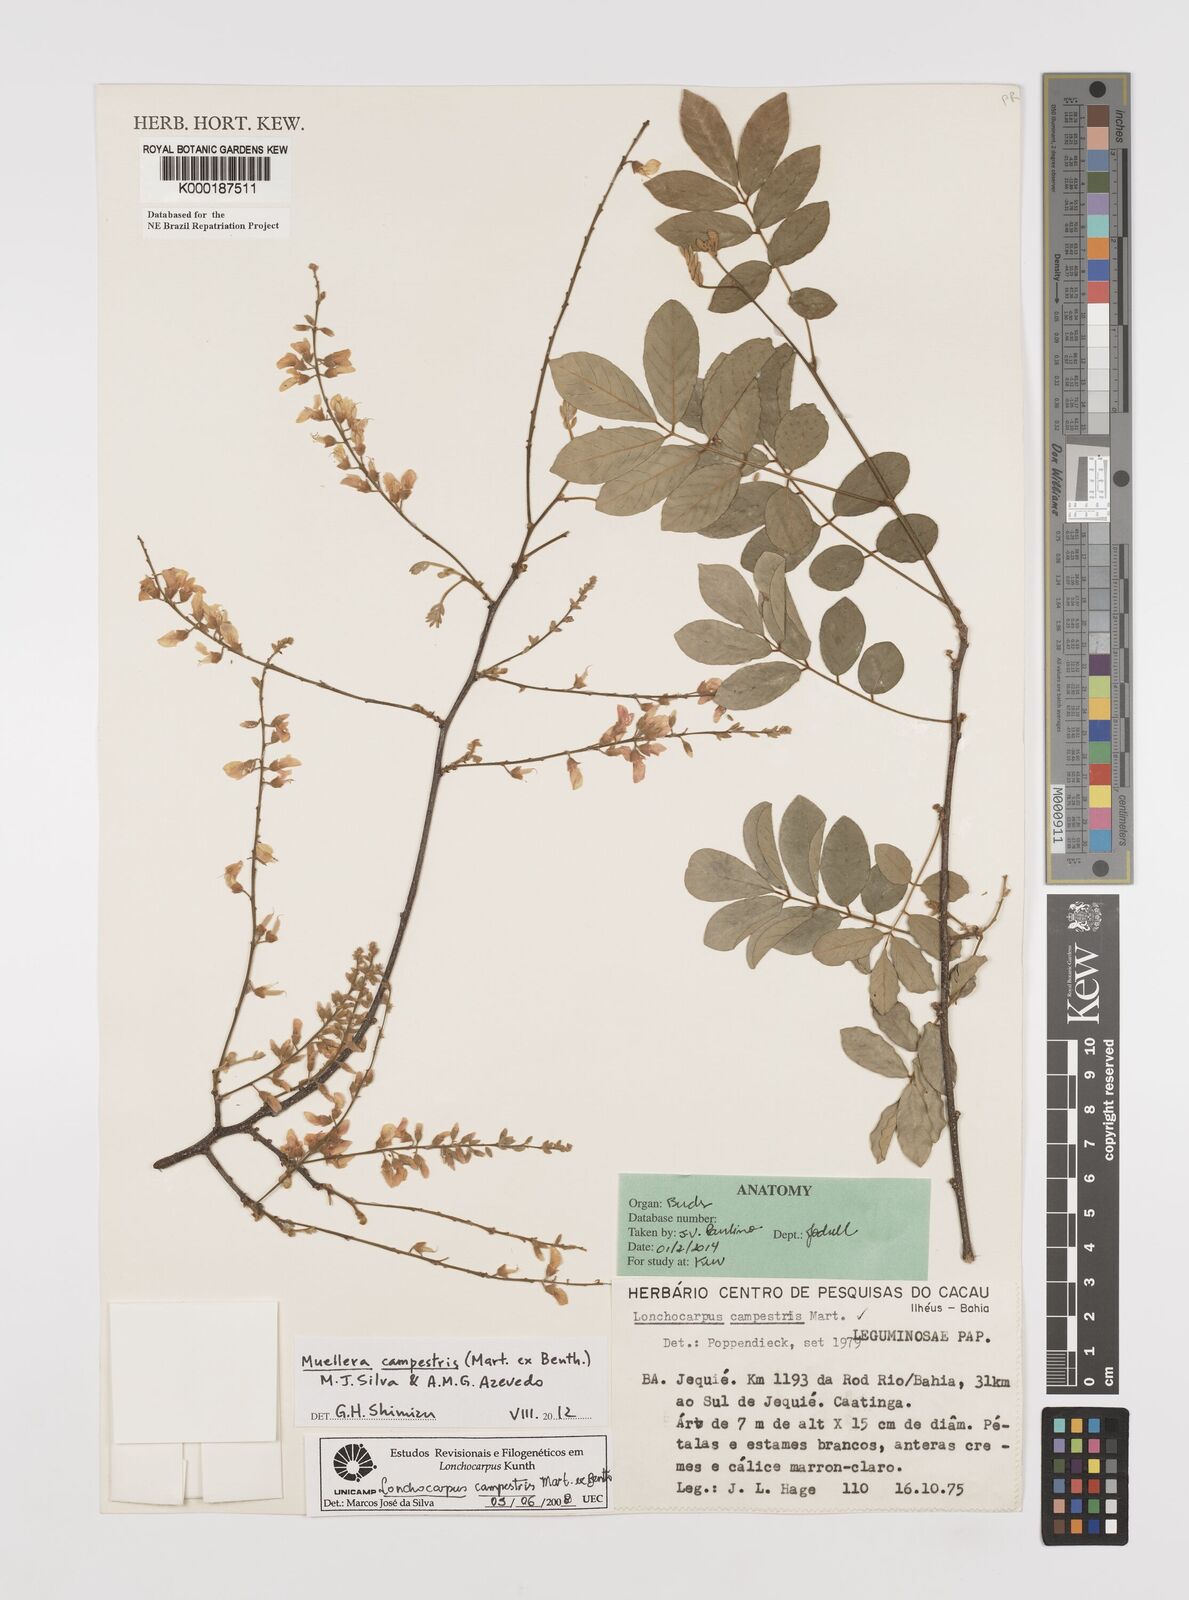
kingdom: Plantae
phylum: Tracheophyta
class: Magnoliopsida
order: Fabales
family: Fabaceae
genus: Muellera
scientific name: Muellera campestris
